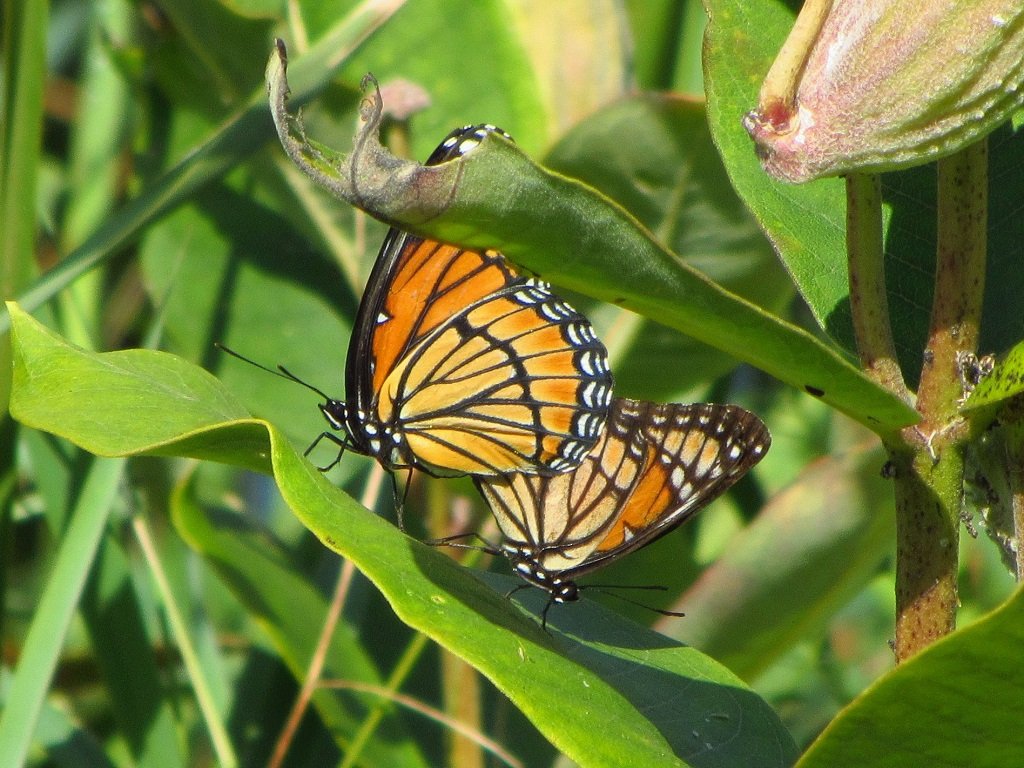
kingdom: Animalia
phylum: Arthropoda
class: Insecta
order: Lepidoptera
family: Nymphalidae
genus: Limenitis
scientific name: Limenitis archippus
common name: Viceroy
